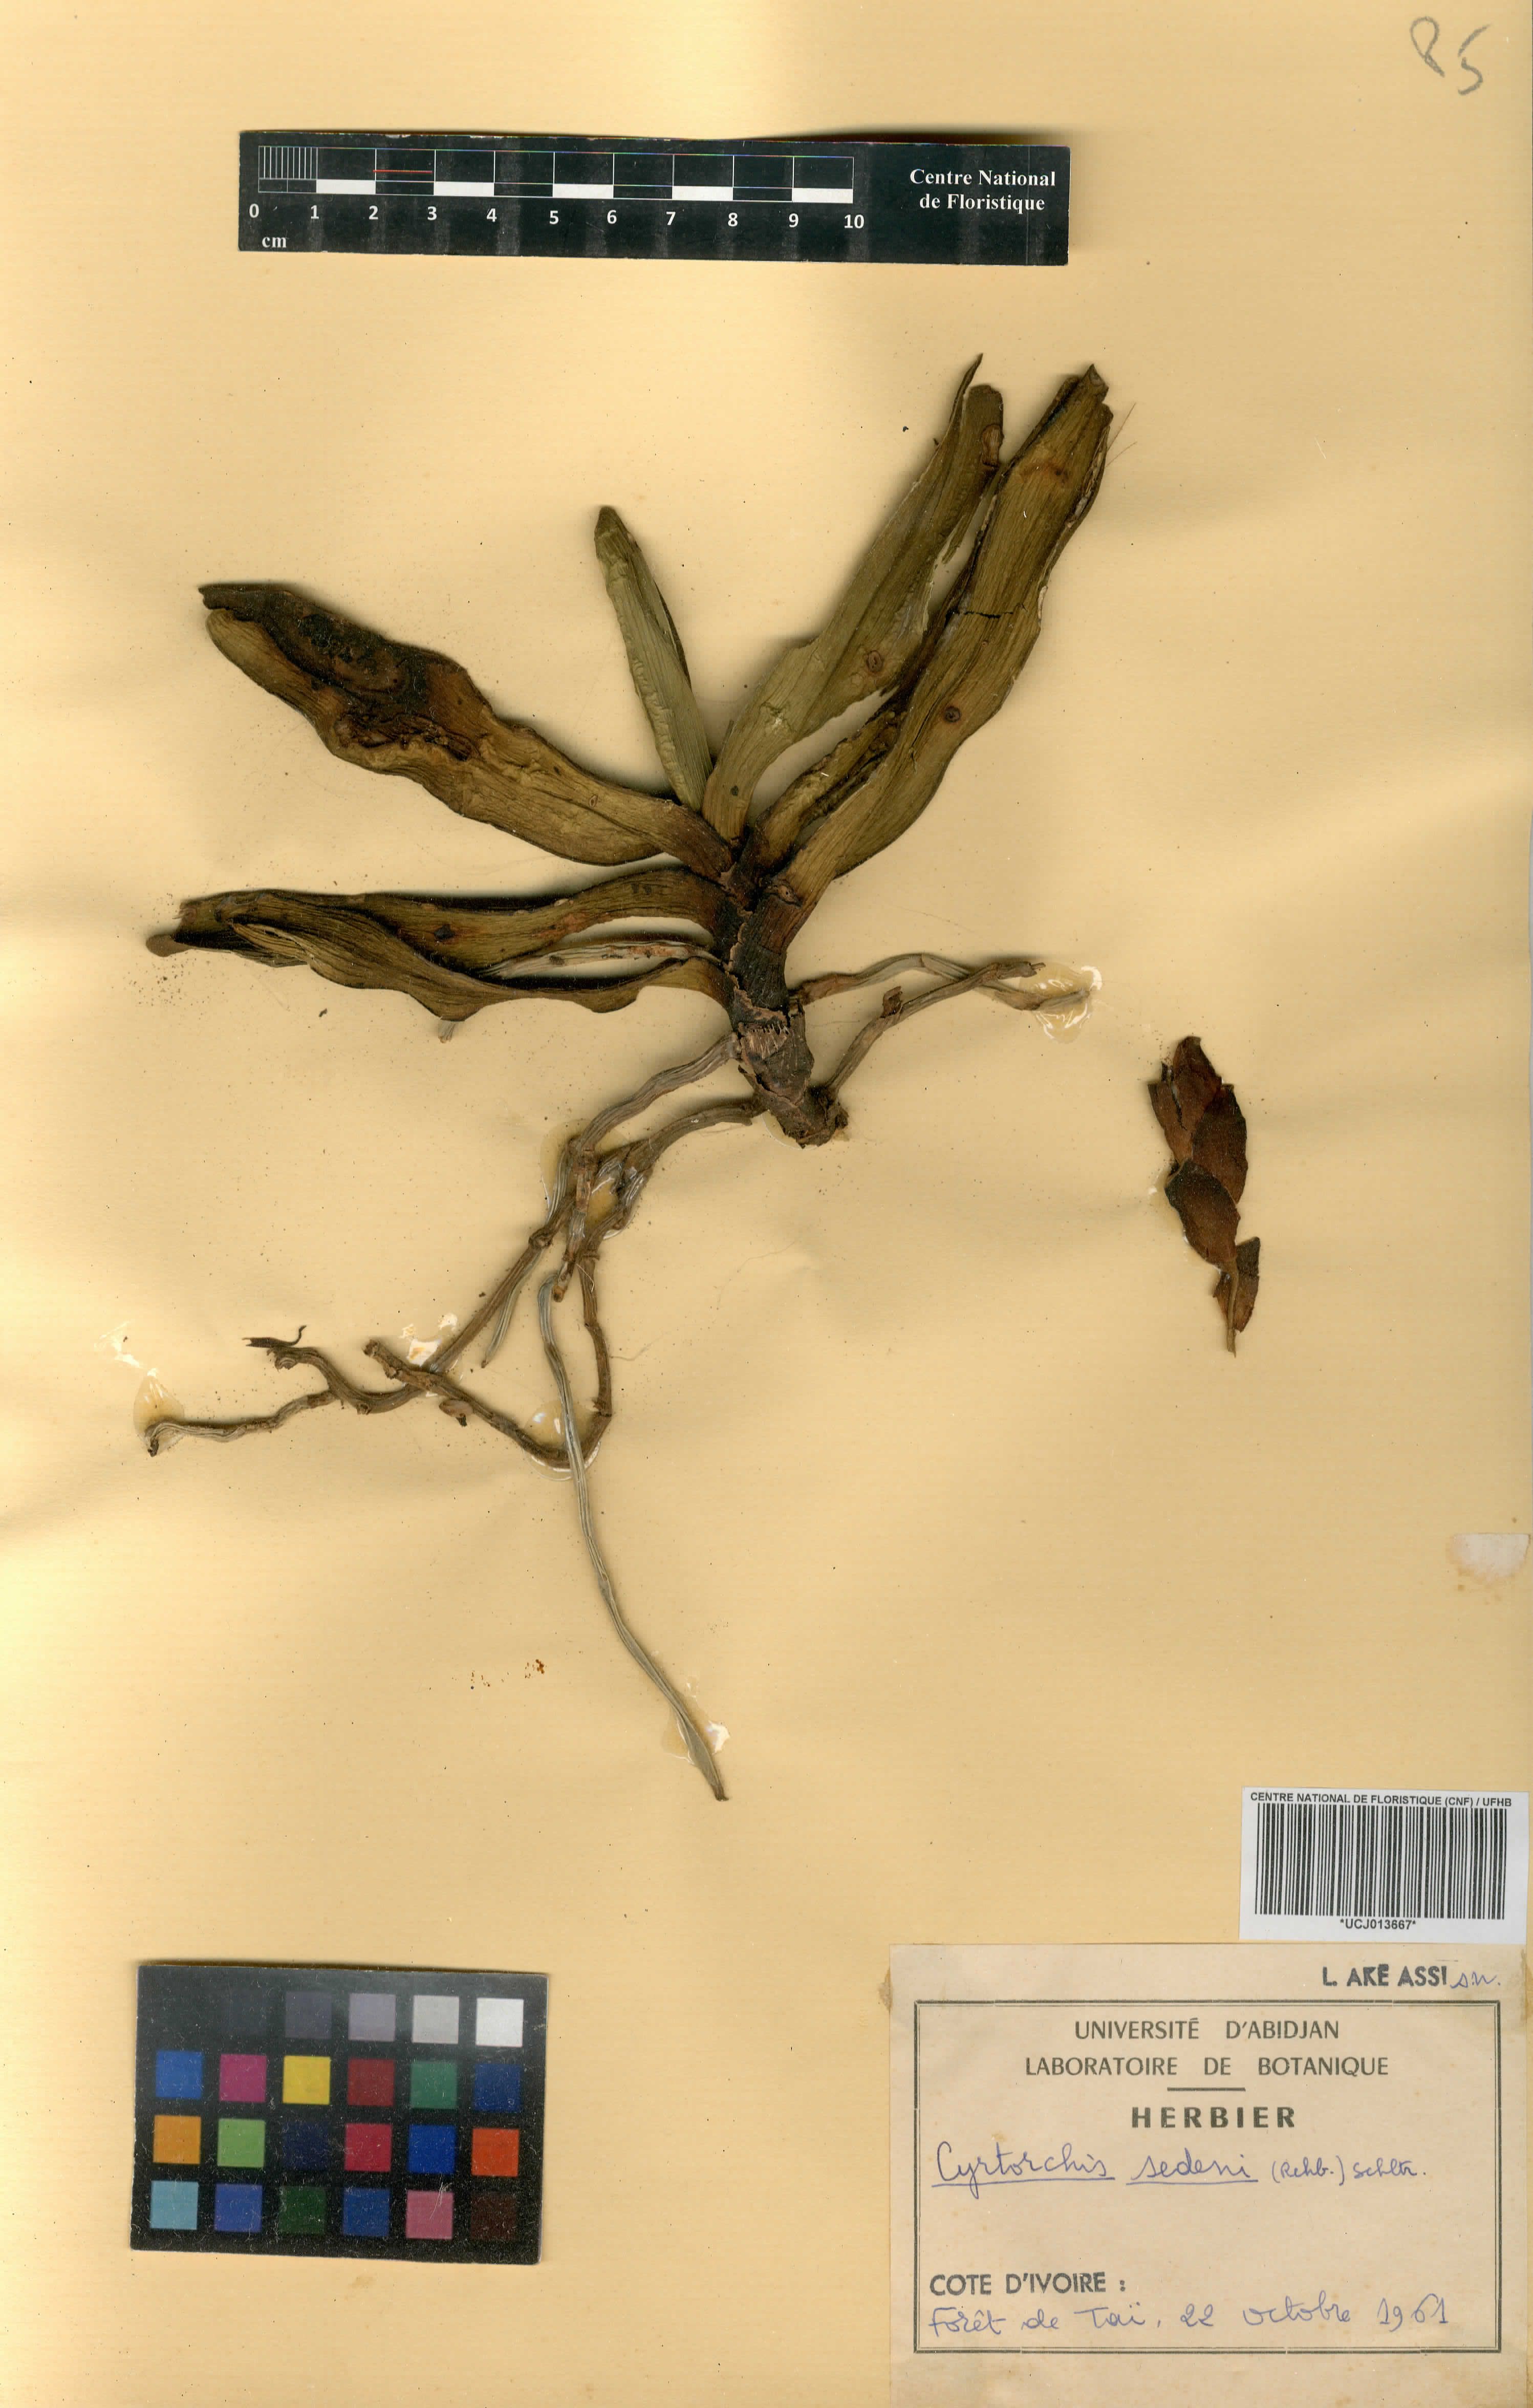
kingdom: Plantae
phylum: Tracheophyta
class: Liliopsida
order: Asparagales
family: Orchidaceae
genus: Cyrtorchis
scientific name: Cyrtorchis arcuata
